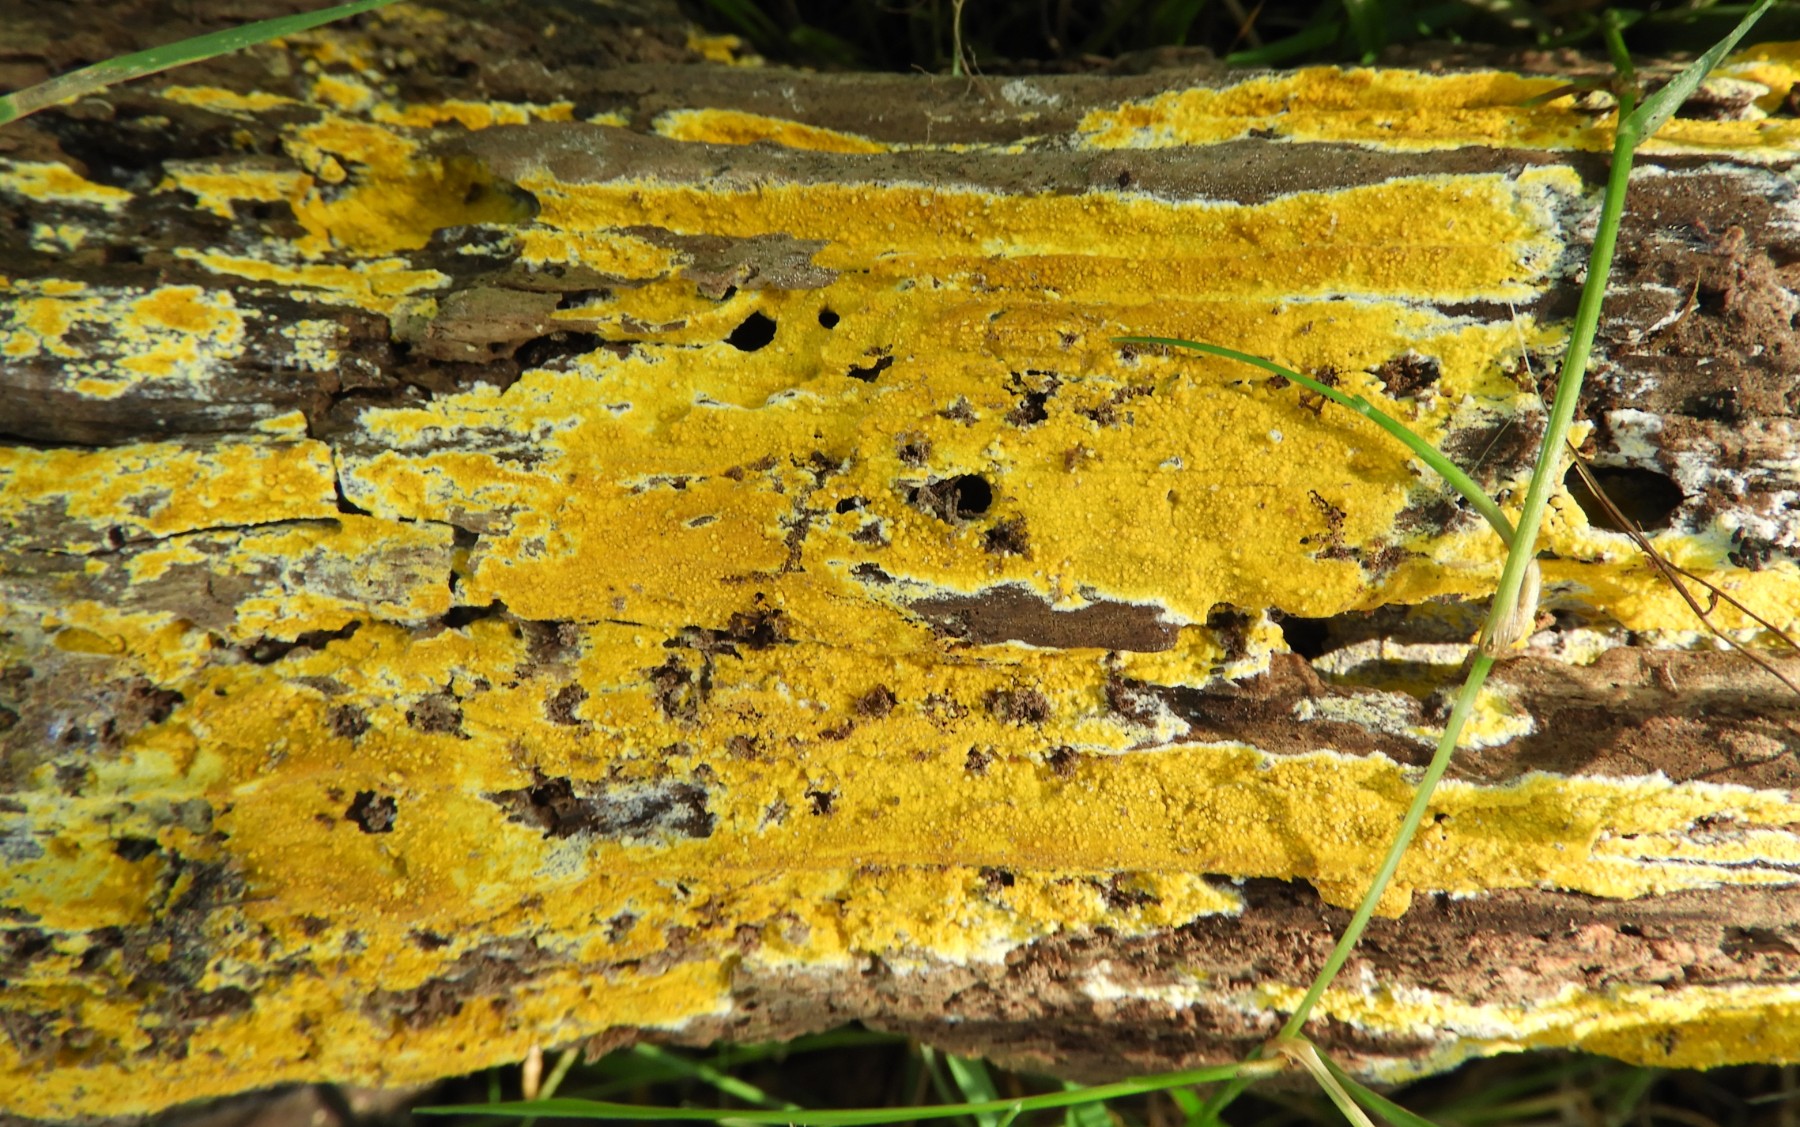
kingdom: Fungi
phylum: Basidiomycota
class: Agaricomycetes
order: Polyporales
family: Meruliaceae
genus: Phlebiodontia
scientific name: Phlebiodontia subochracea
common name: svovl-åresvamp
